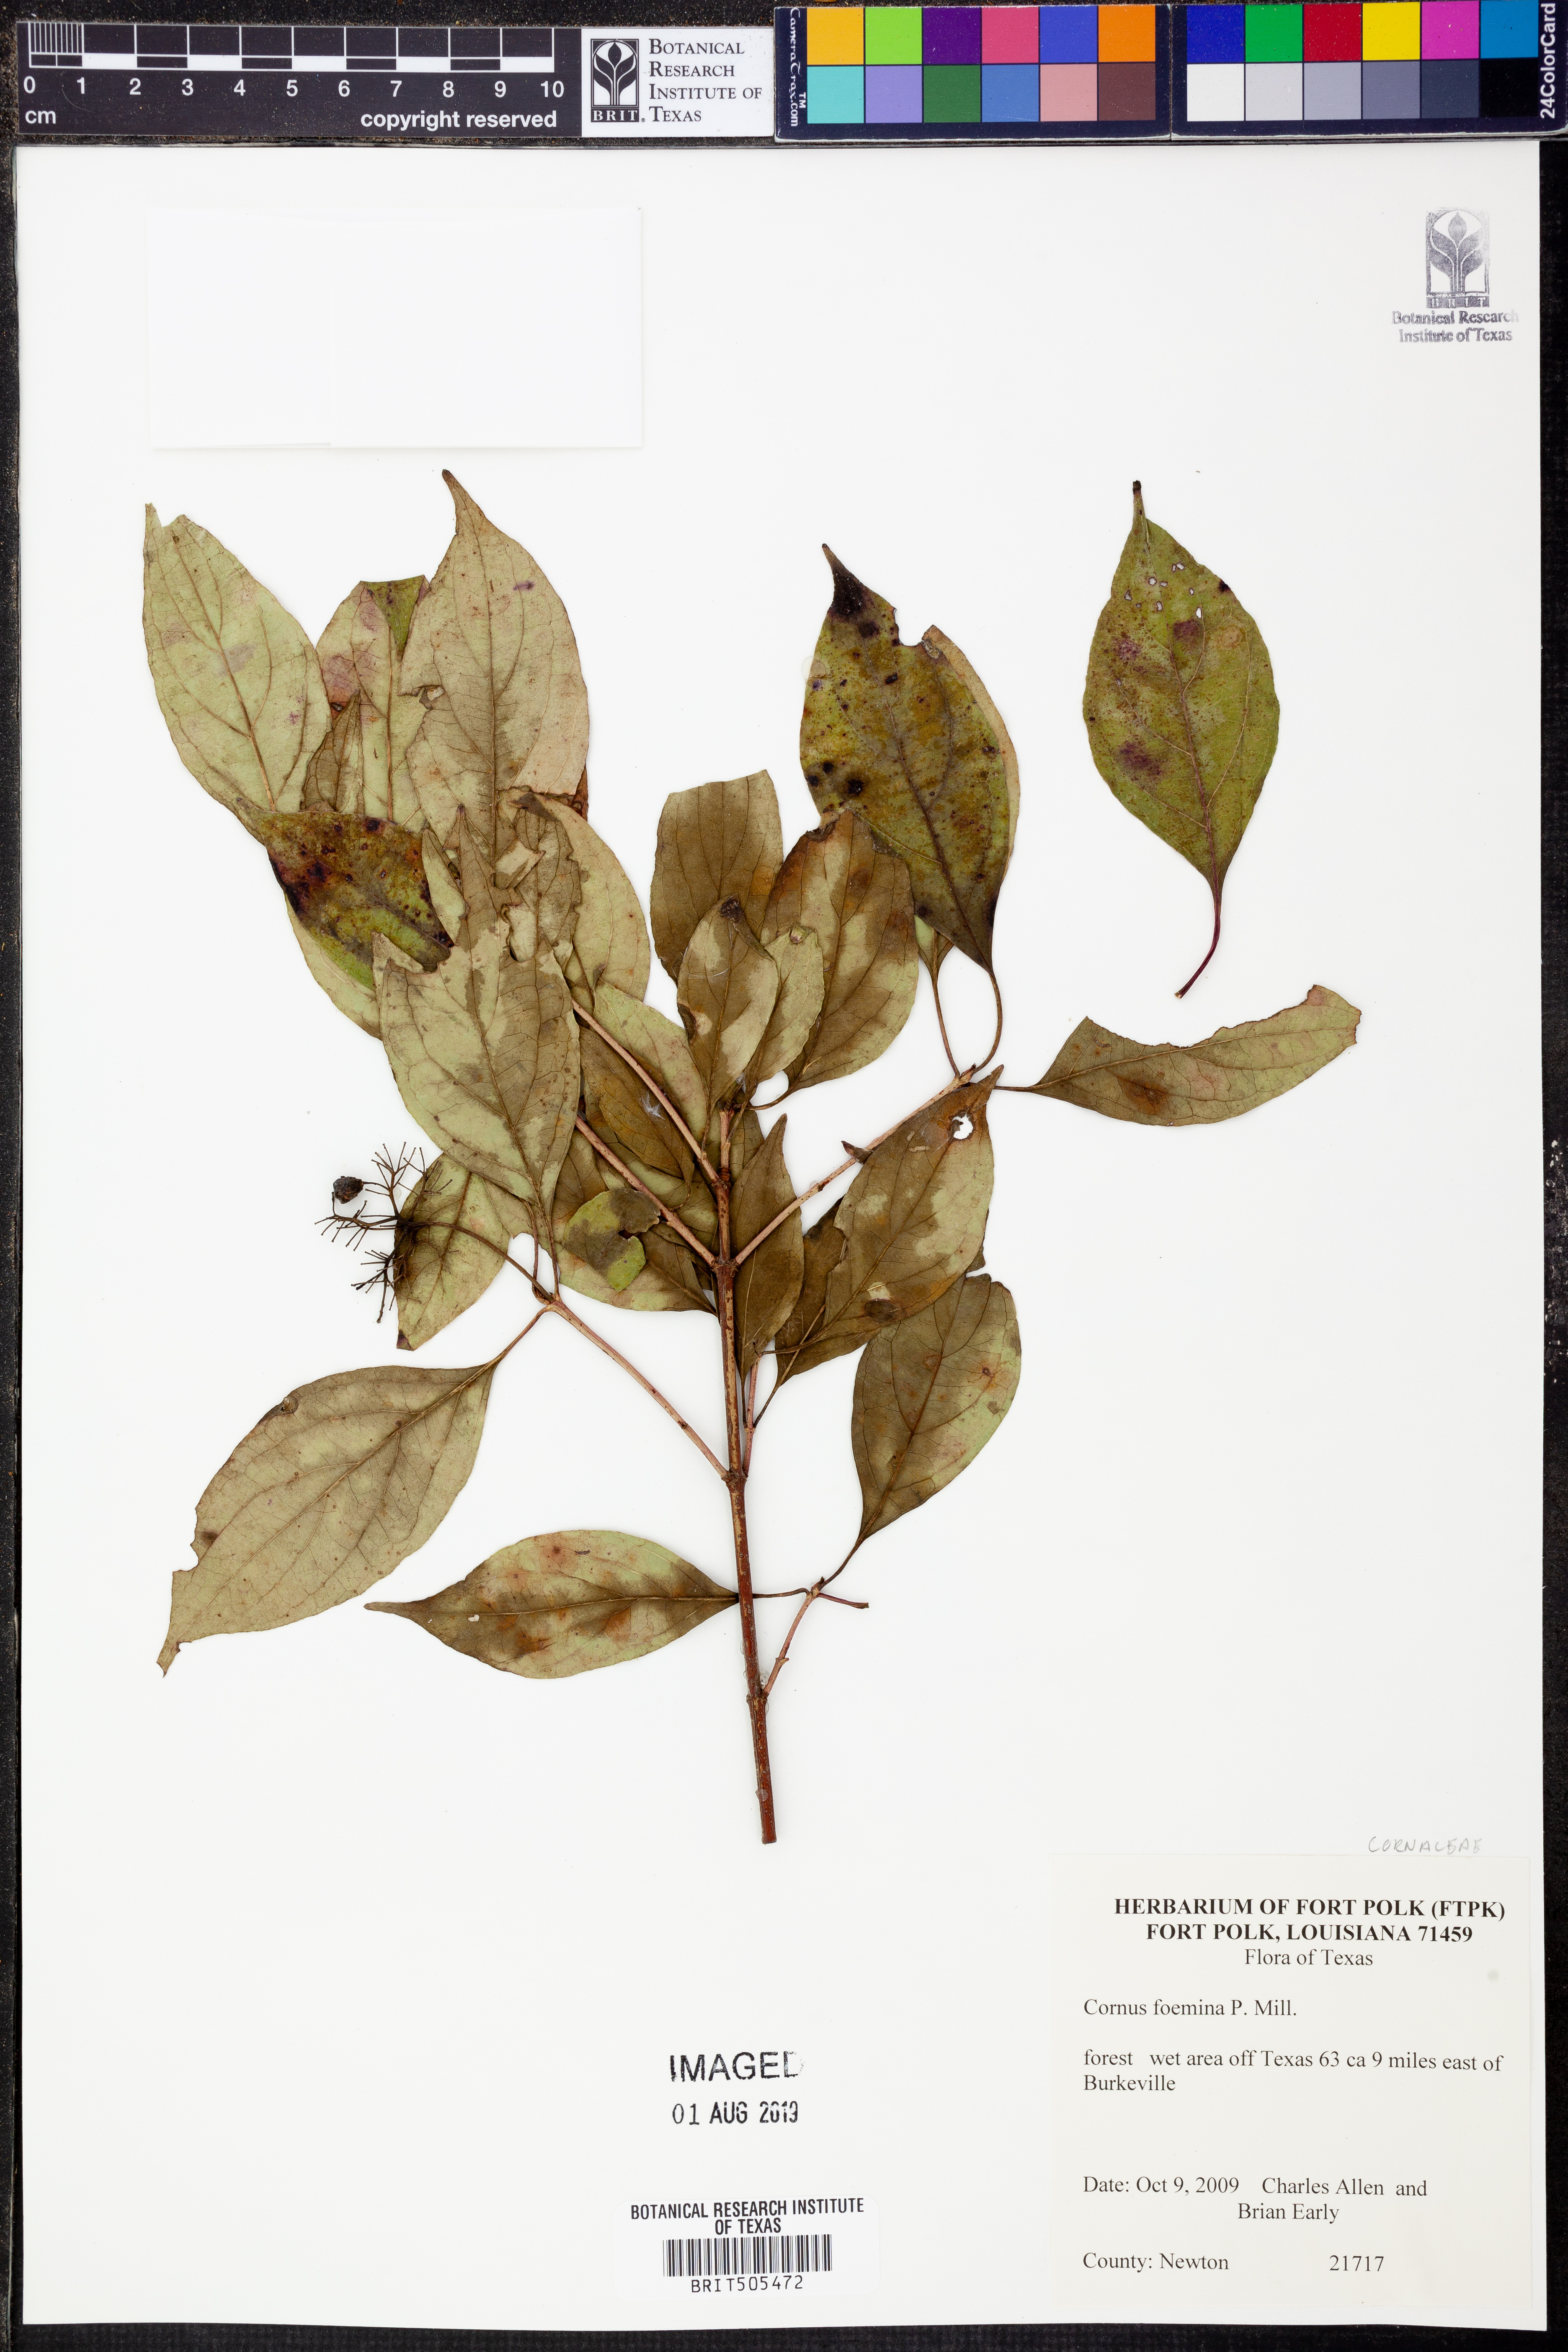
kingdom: Plantae
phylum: Tracheophyta
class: Magnoliopsida
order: Cornales
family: Cornaceae
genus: Cornus
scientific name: Cornus foemina
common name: Swamp dogwood
